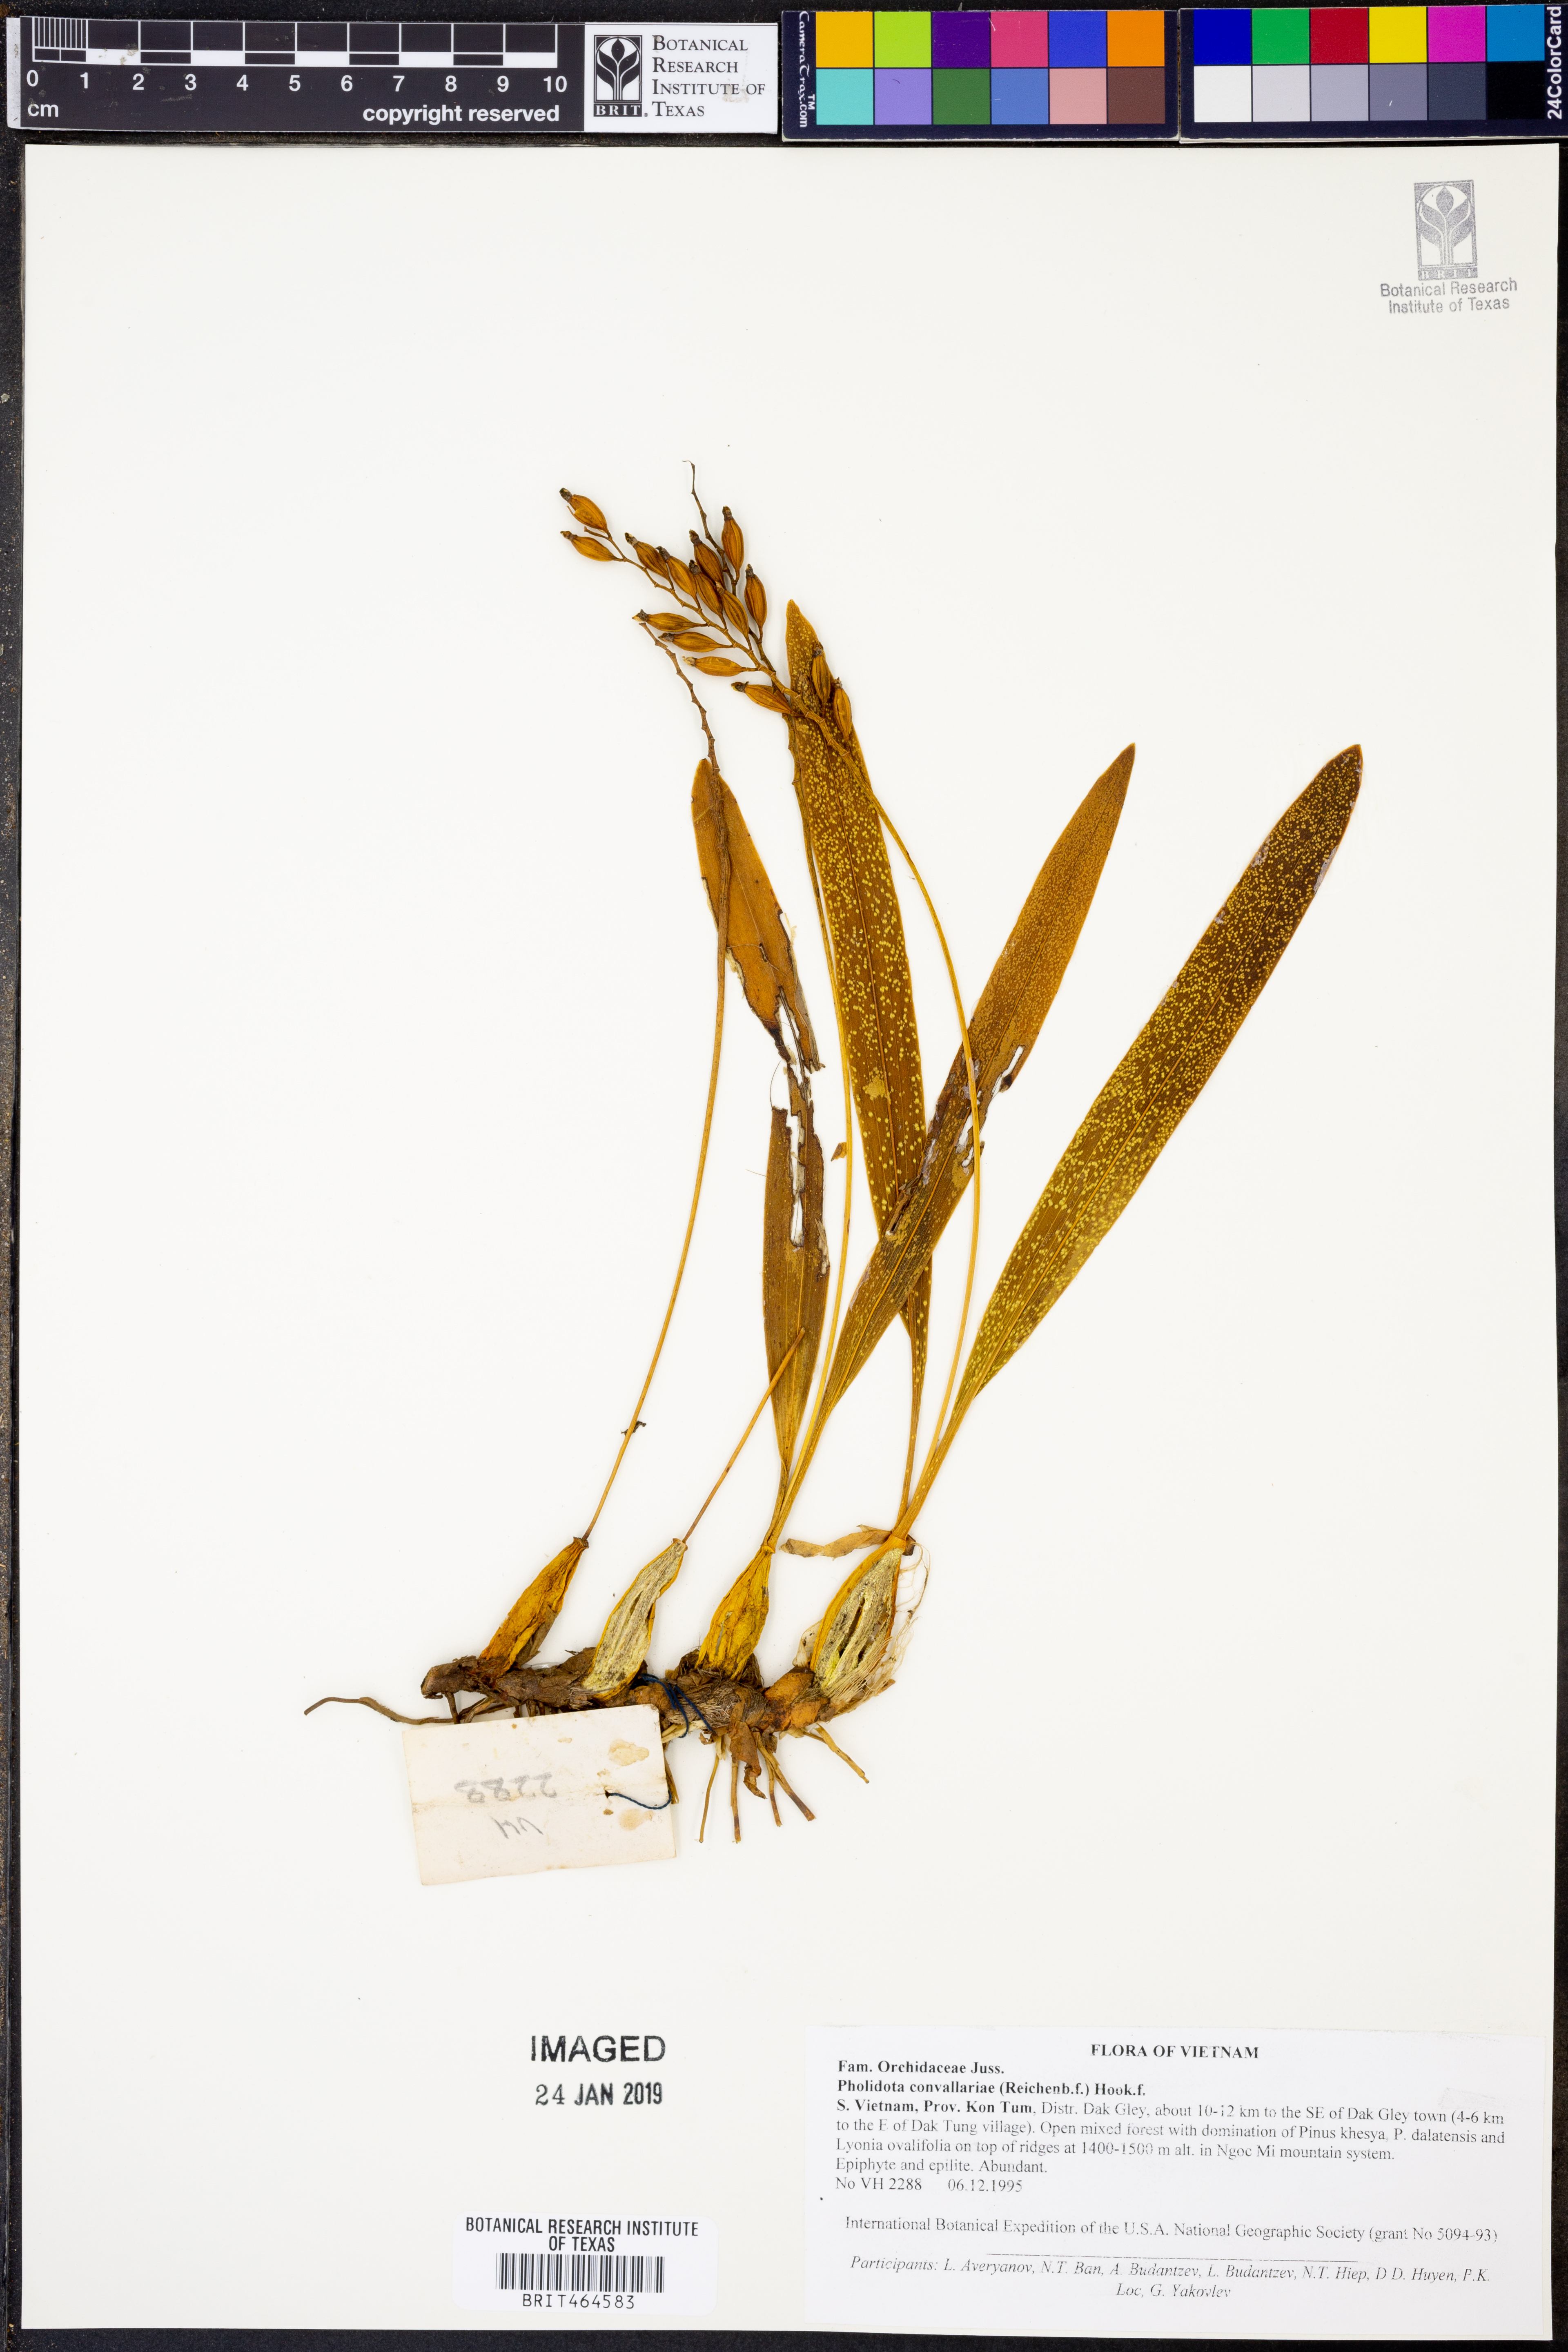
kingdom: Plantae
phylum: Tracheophyta
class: Liliopsida
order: Asparagales
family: Orchidaceae
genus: Coelogyne
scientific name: Coelogyne convallariae
